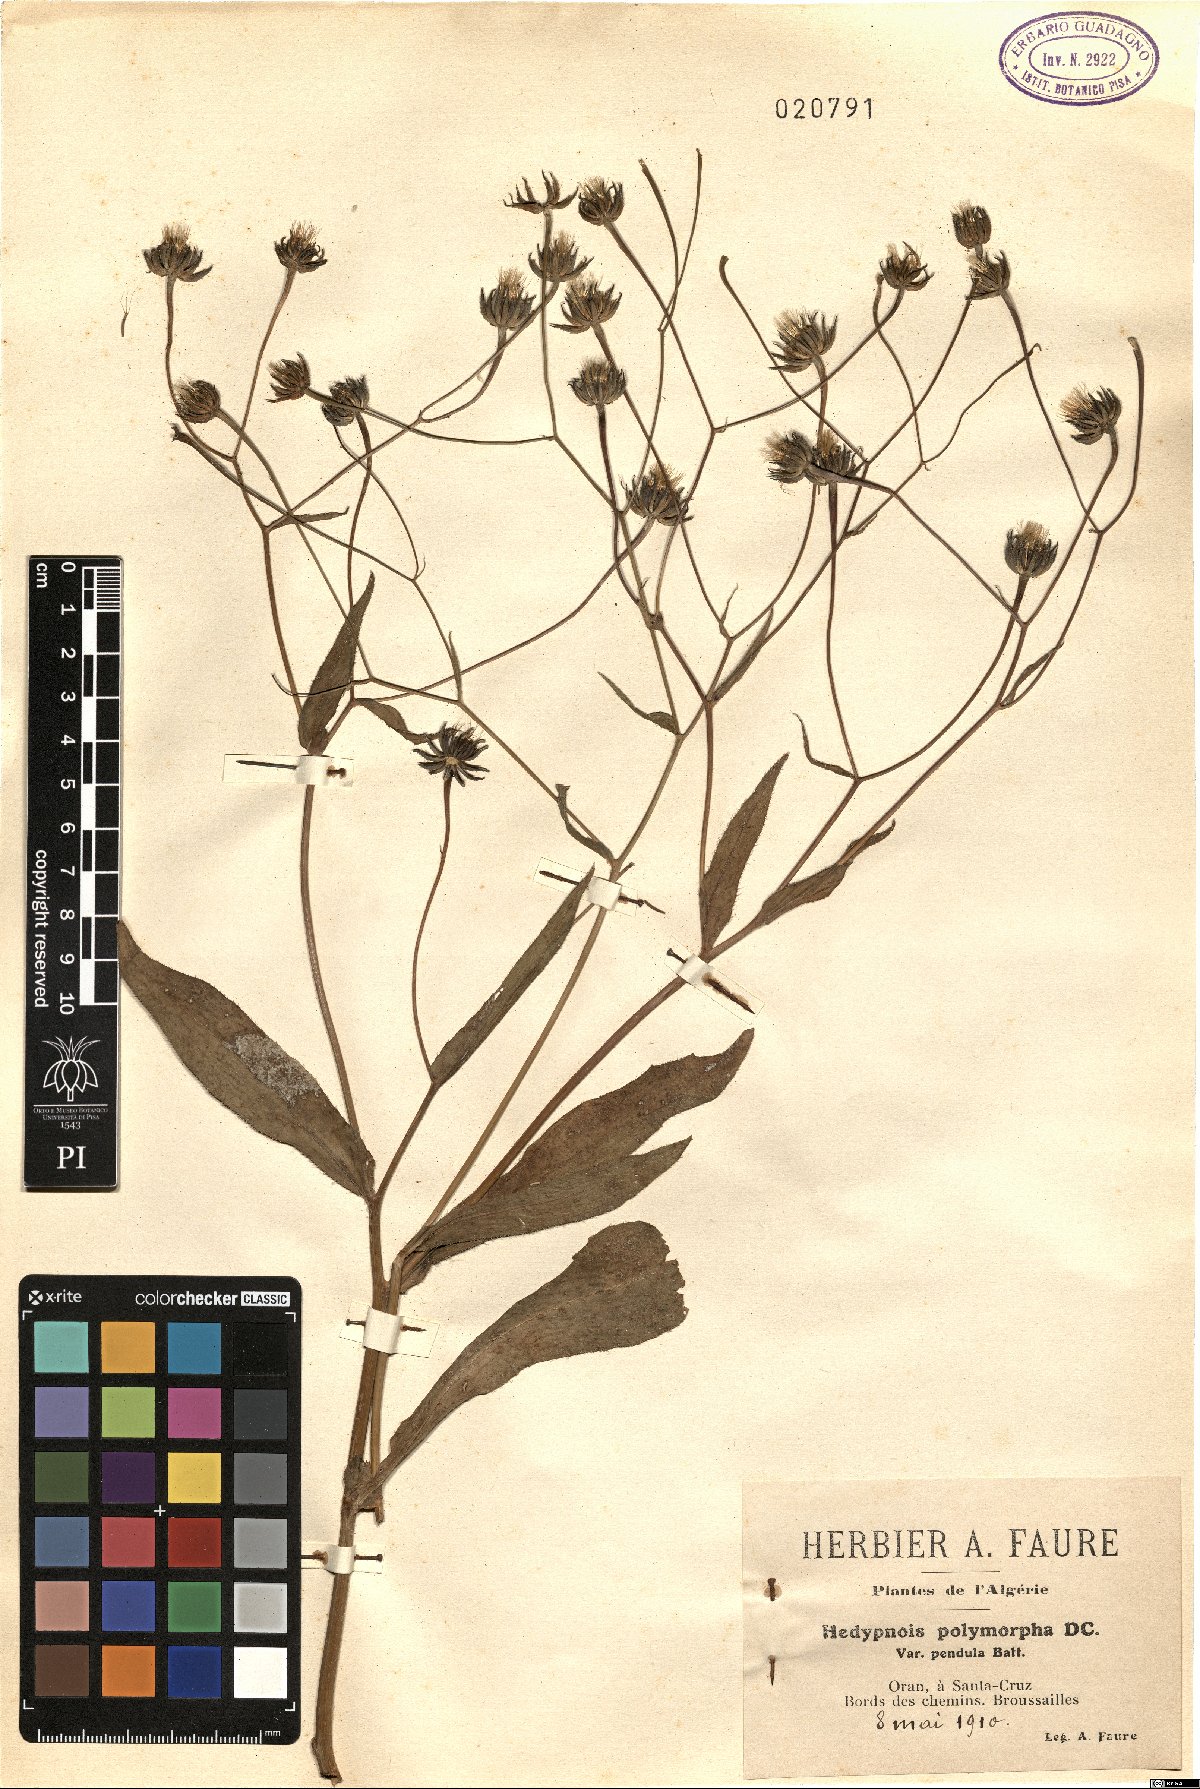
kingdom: Plantae
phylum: Tracheophyta
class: Magnoliopsida
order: Asterales
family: Asteraceae
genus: Hedypnois
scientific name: Hedypnois rhagadioloides
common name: Cretan weed
